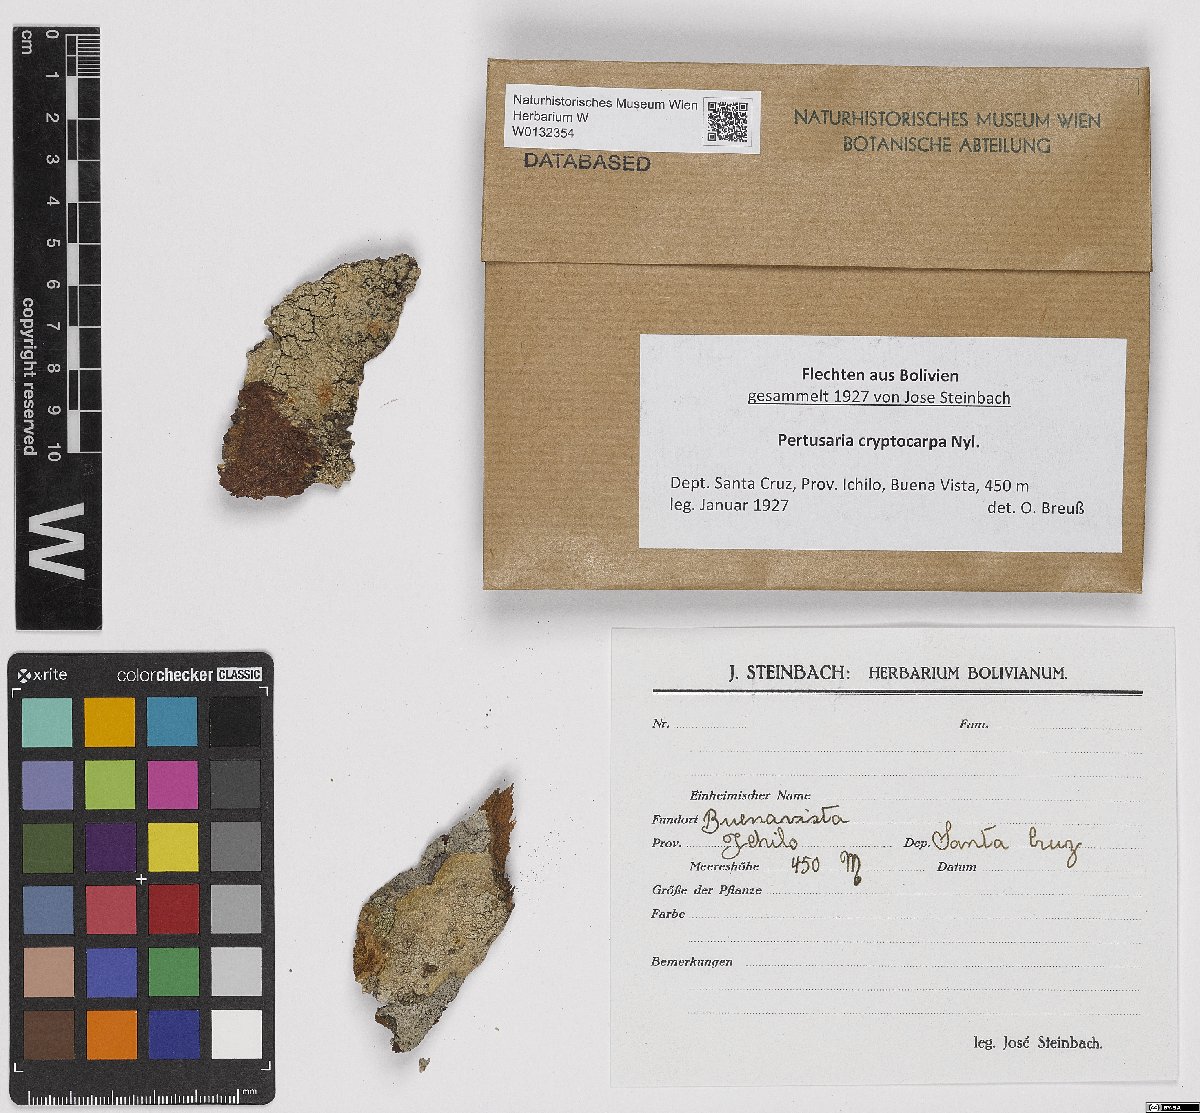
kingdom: Fungi
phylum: Ascomycota
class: Lecanoromycetes
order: Pertusariales
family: Pertusariaceae
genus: Pertusaria
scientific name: Pertusaria
